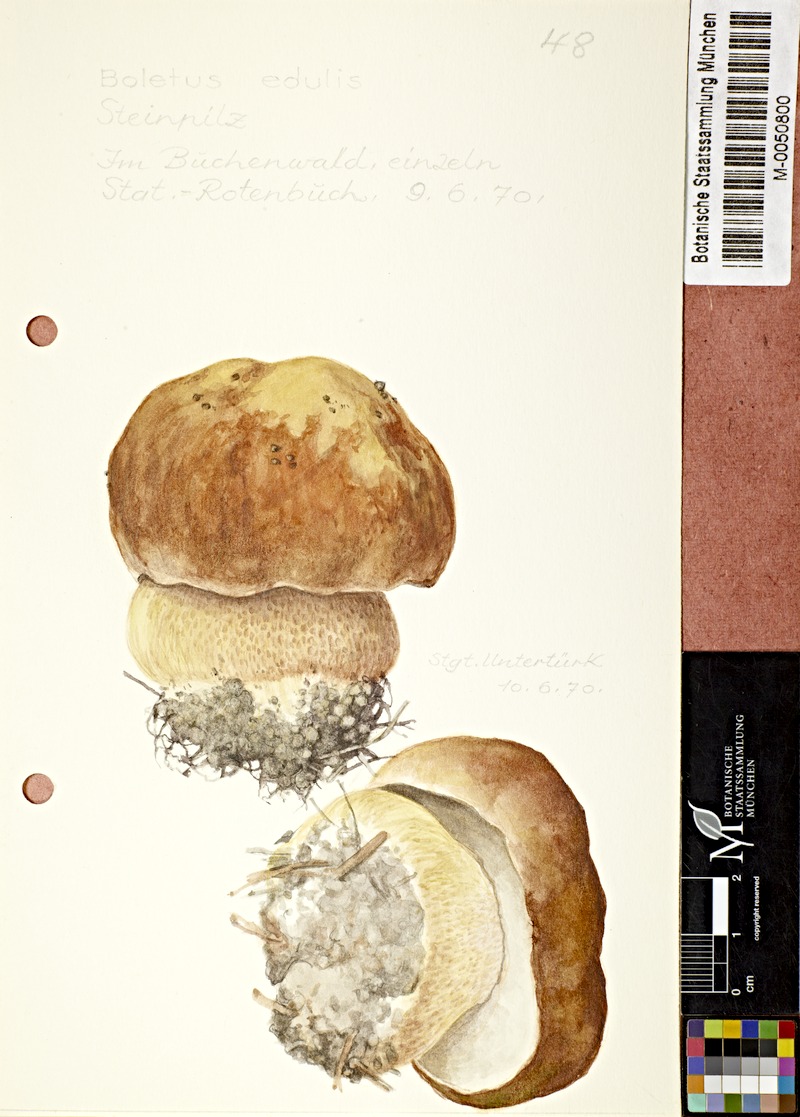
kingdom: Fungi
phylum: Basidiomycota
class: Agaricomycetes
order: Boletales
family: Boletaceae
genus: Boletus
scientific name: Boletus edulis
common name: Cep
